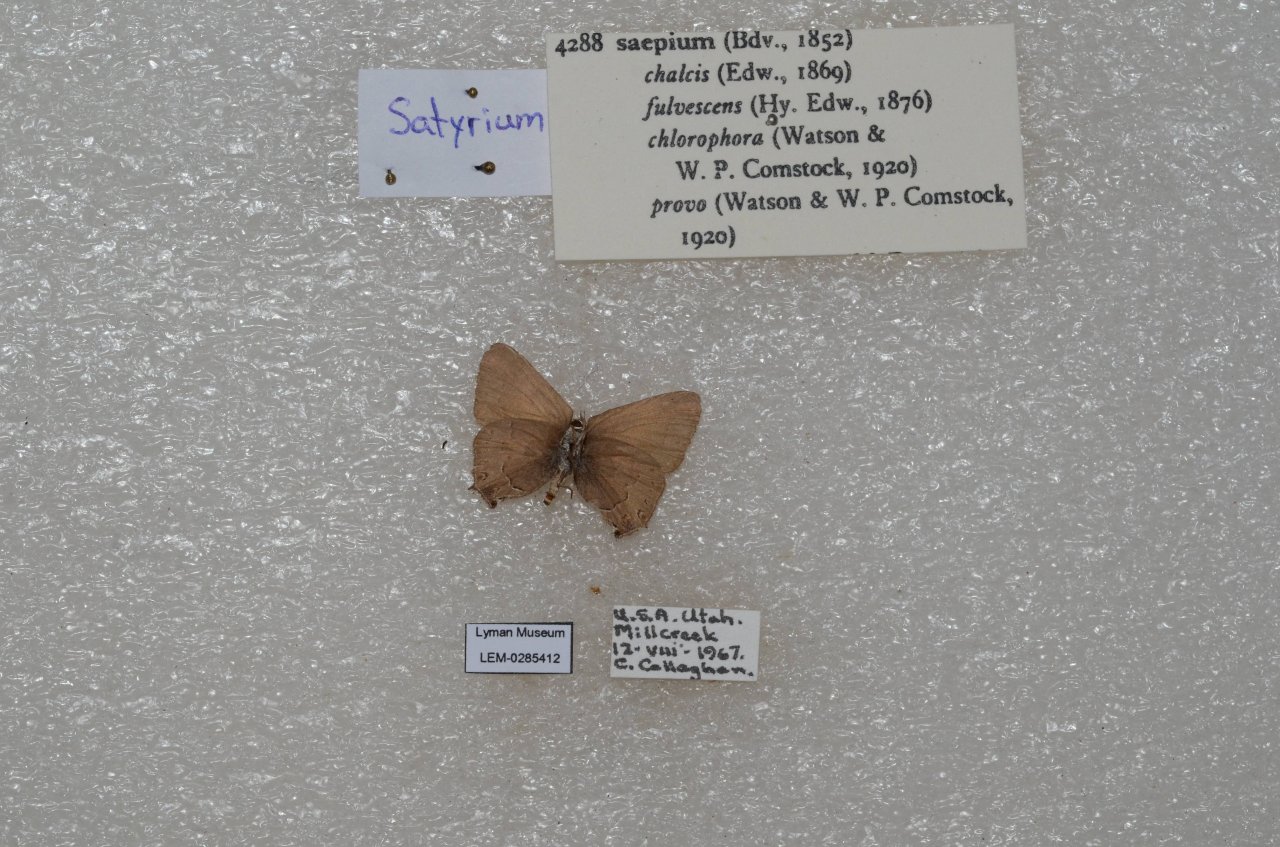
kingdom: Animalia
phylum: Arthropoda
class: Insecta
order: Lepidoptera
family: Lycaenidae
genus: Strymon
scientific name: Strymon saepium
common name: Hedgerow Hairstreak
